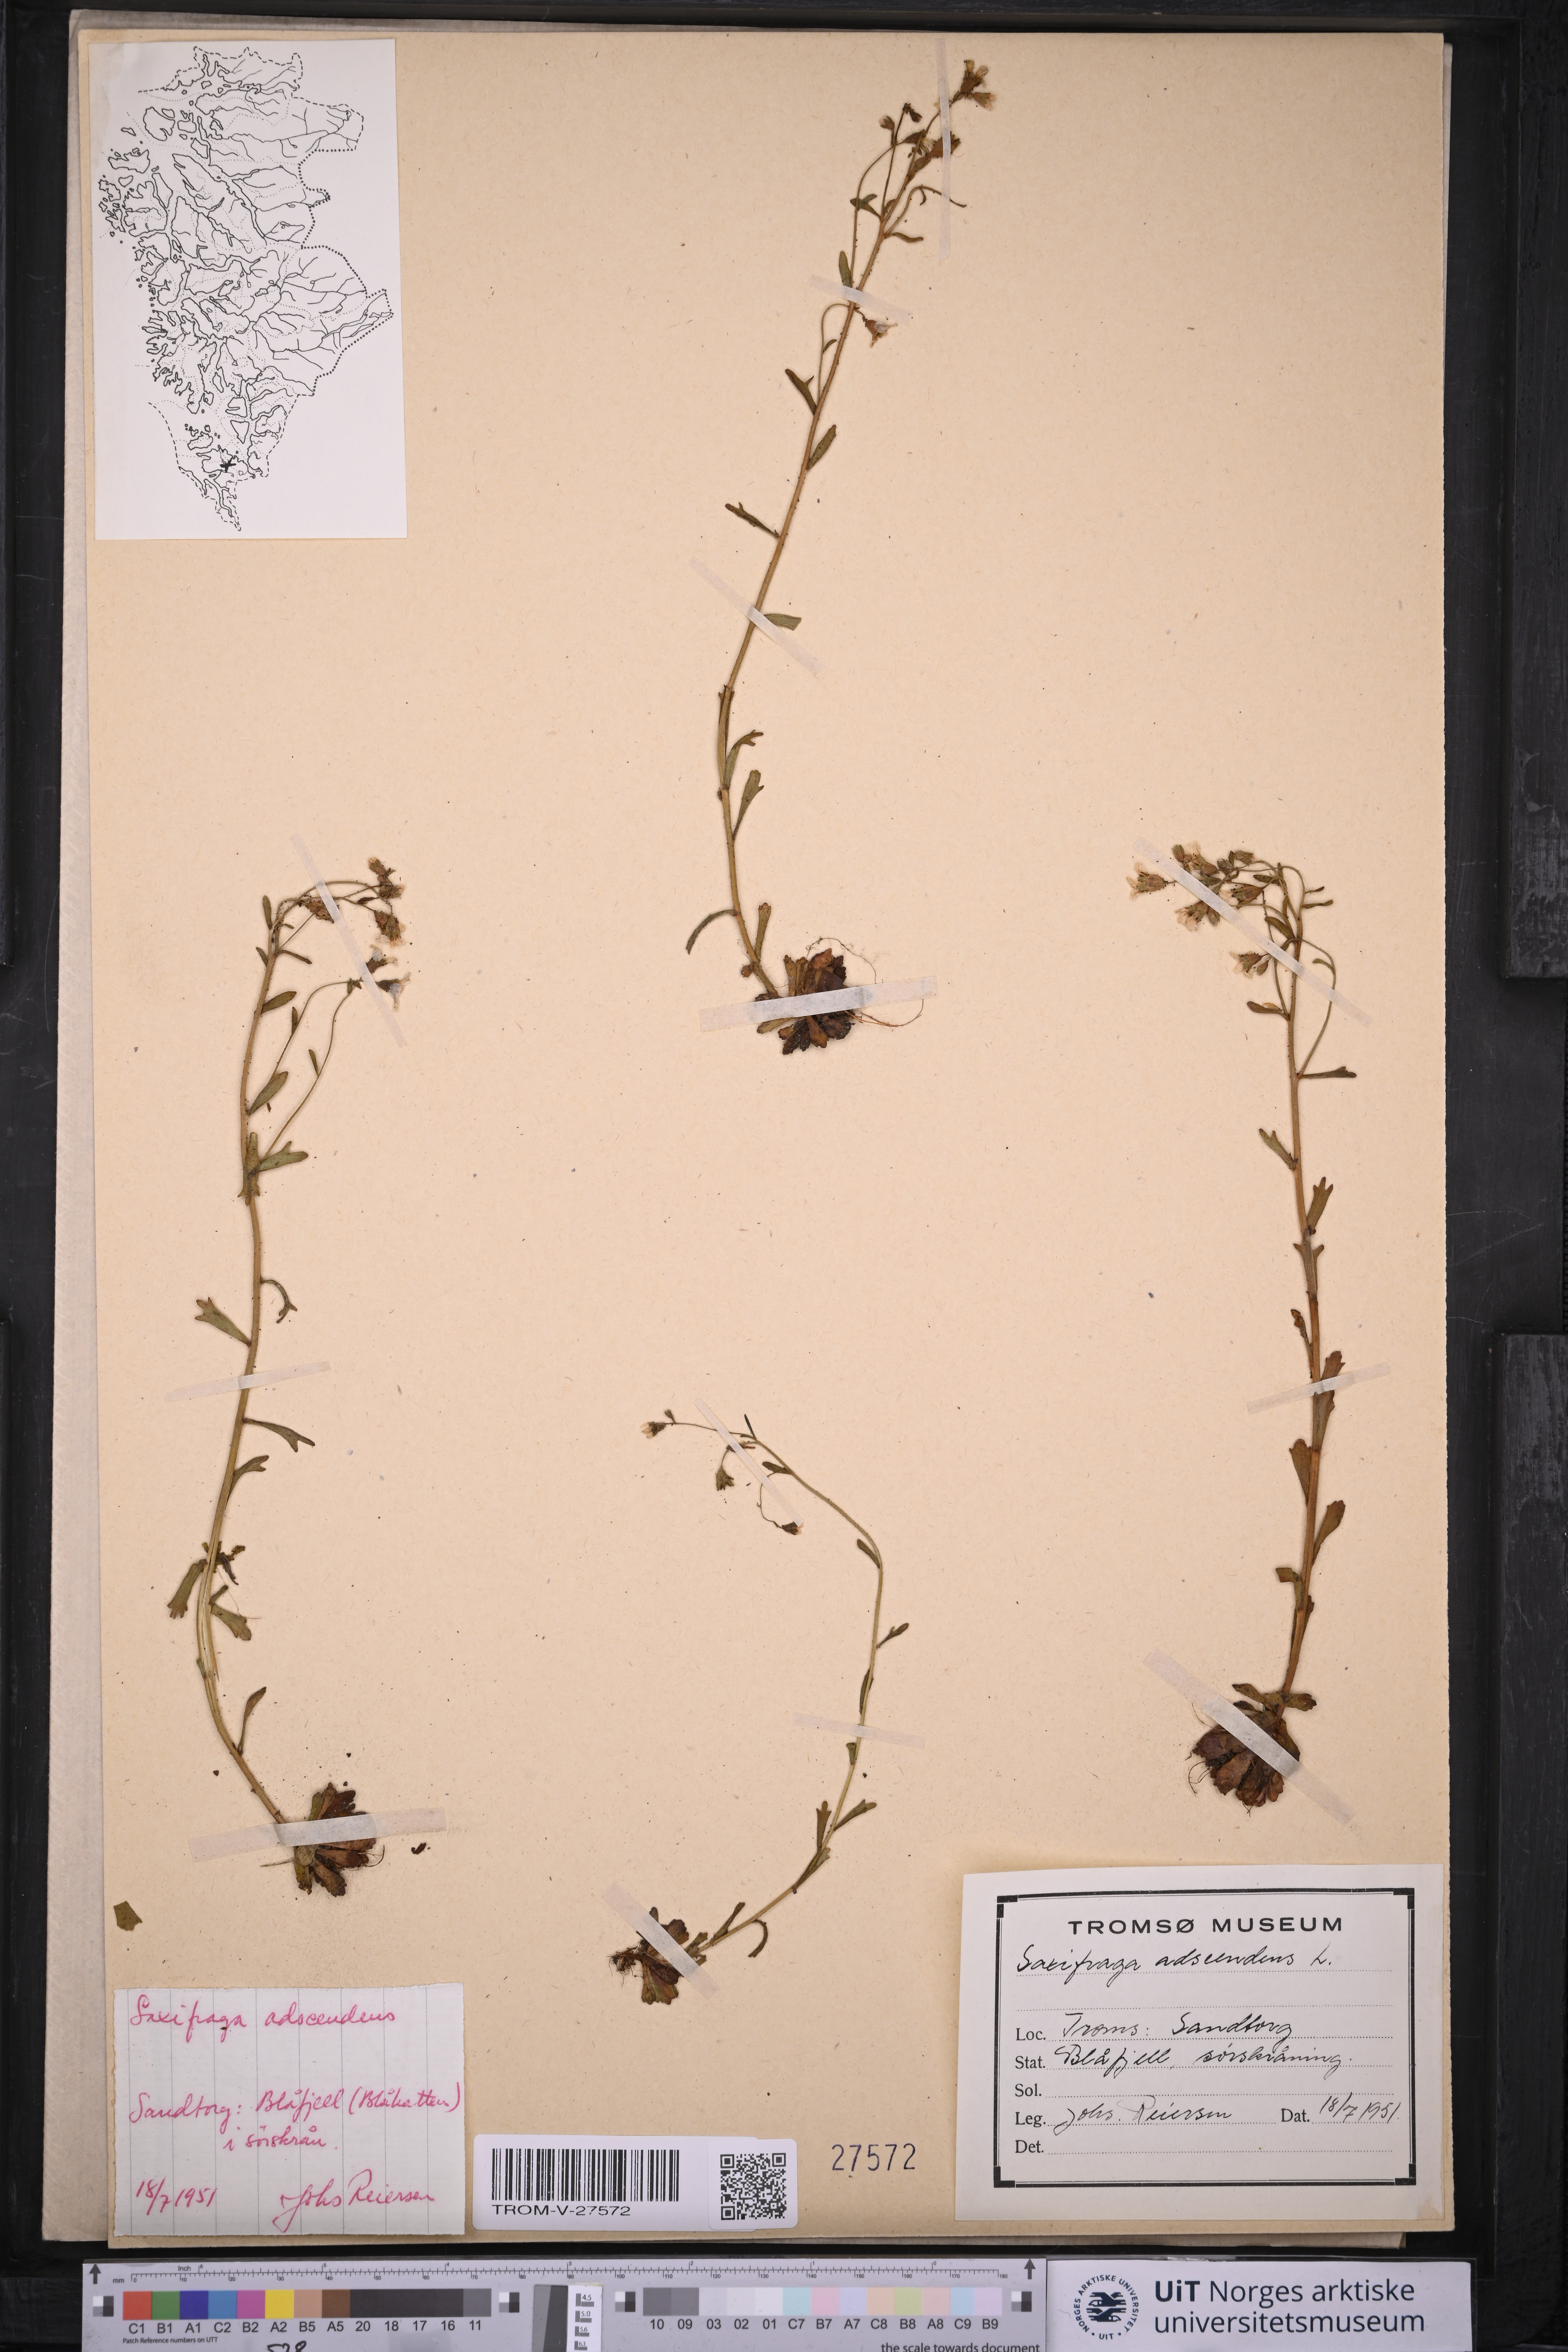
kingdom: Plantae
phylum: Tracheophyta
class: Magnoliopsida
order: Saxifragales
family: Saxifragaceae
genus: Saxifraga
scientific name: Saxifraga adscendens
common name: Ascending saxifrage
